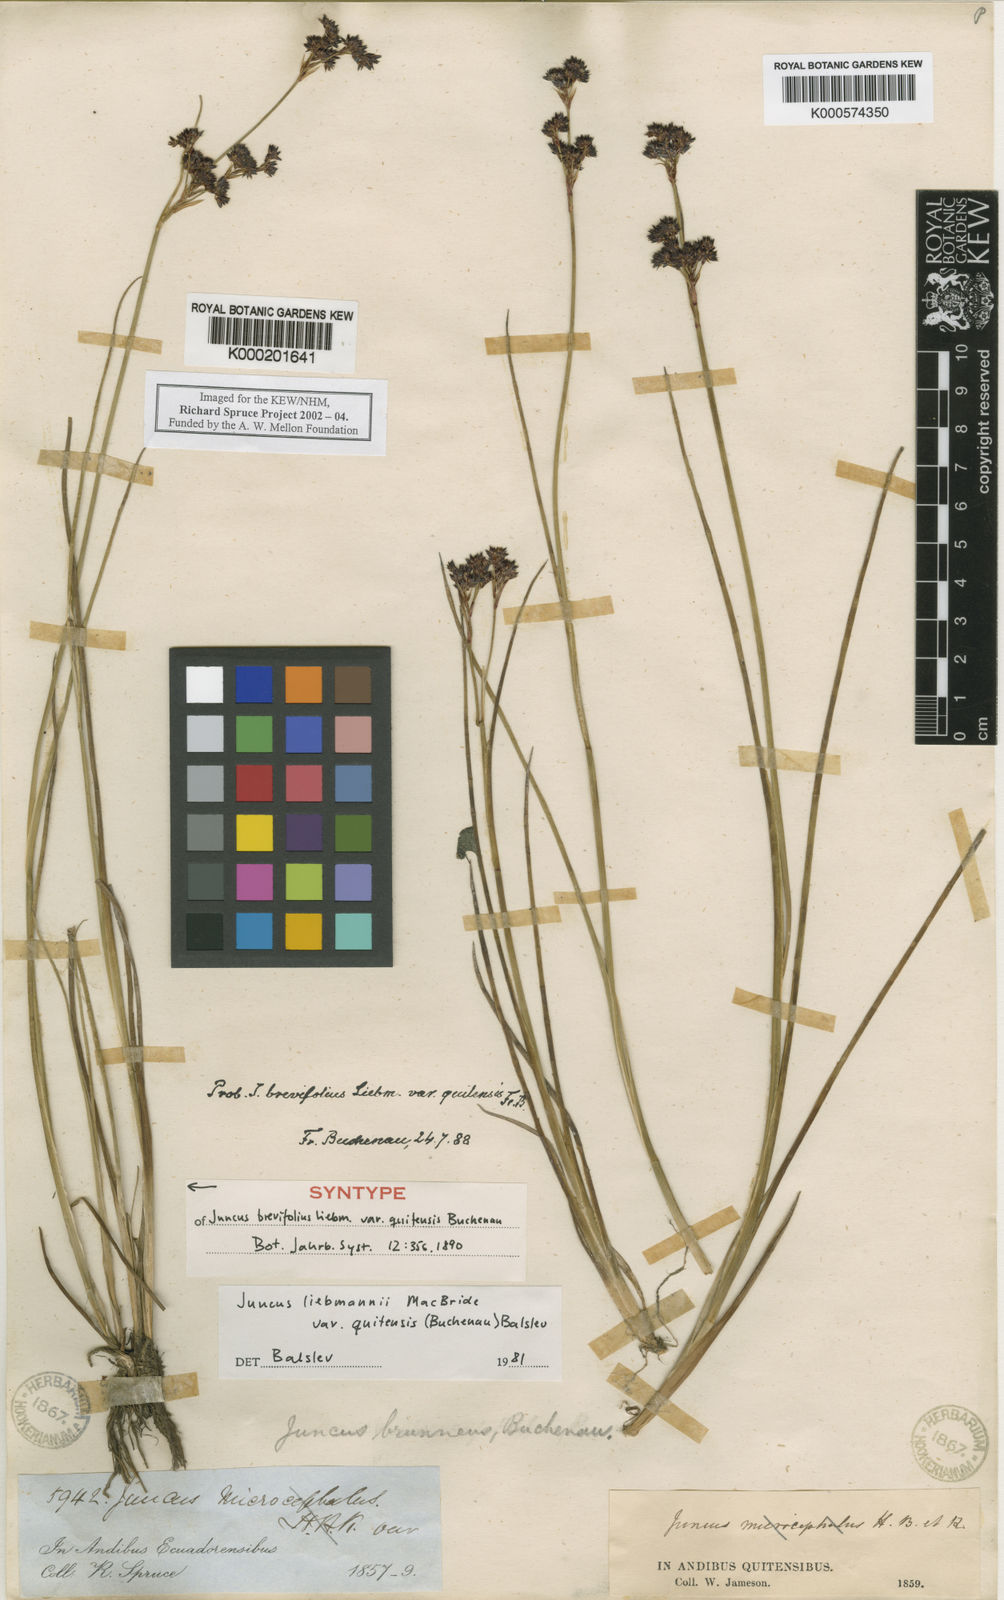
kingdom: Plantae
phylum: Tracheophyta
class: Liliopsida
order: Poales
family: Juncaceae
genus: Juncus
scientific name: Juncus liebmannii
